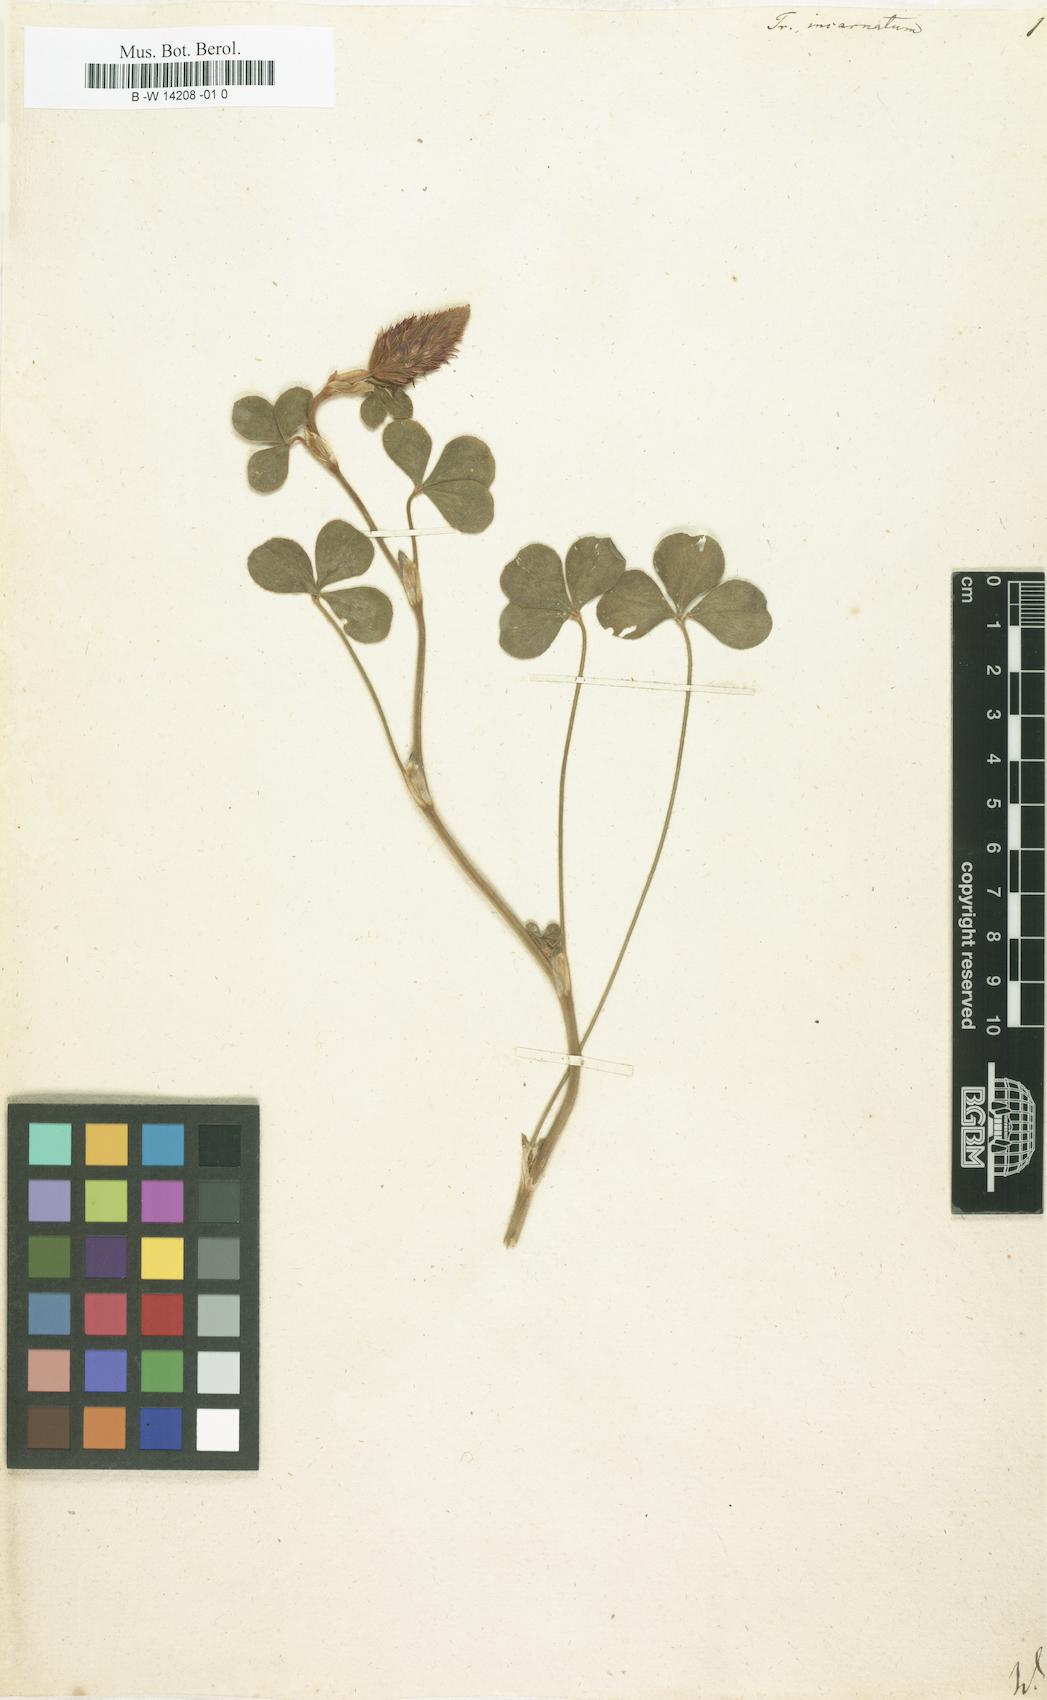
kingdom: Plantae
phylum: Tracheophyta
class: Magnoliopsida
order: Fabales
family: Fabaceae
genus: Trifolium
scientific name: Trifolium incarnatum
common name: Crimson clover
